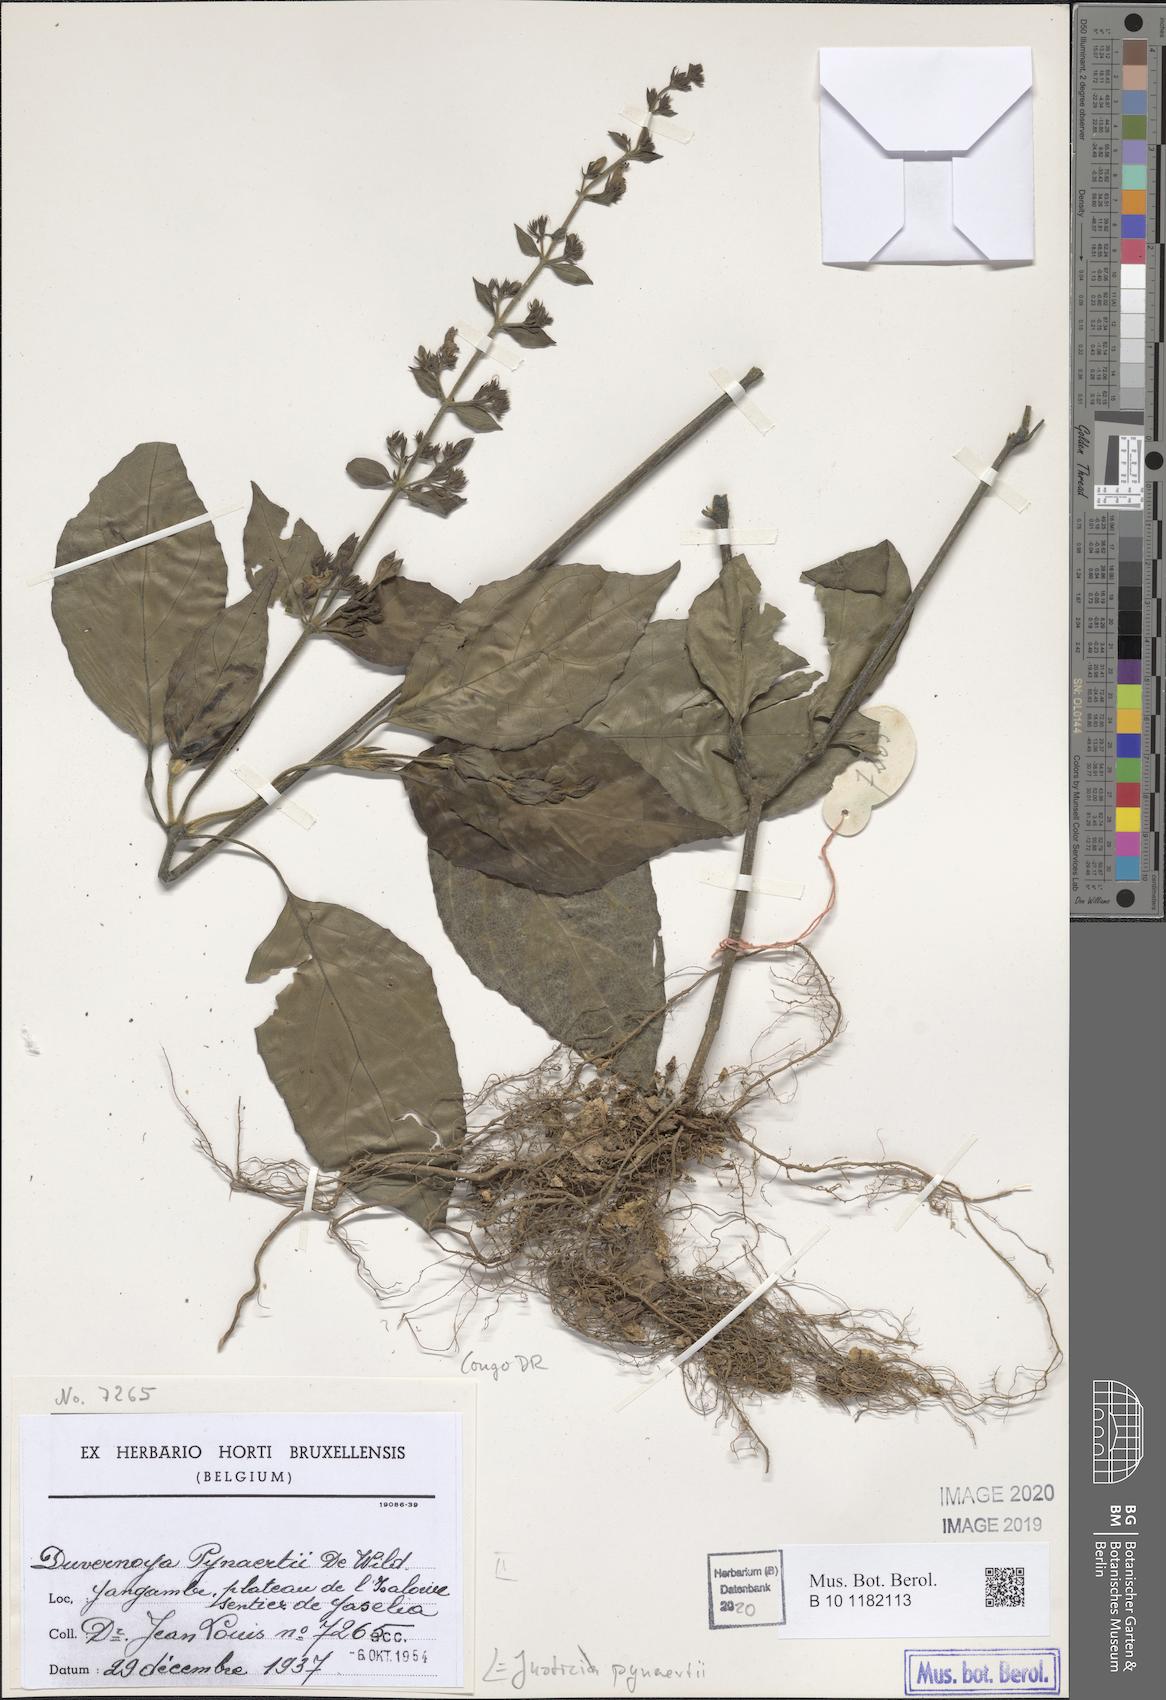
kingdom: Plantae
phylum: Tracheophyta
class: Magnoliopsida
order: Lamiales
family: Acanthaceae
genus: Justicia
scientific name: Justicia laxa
